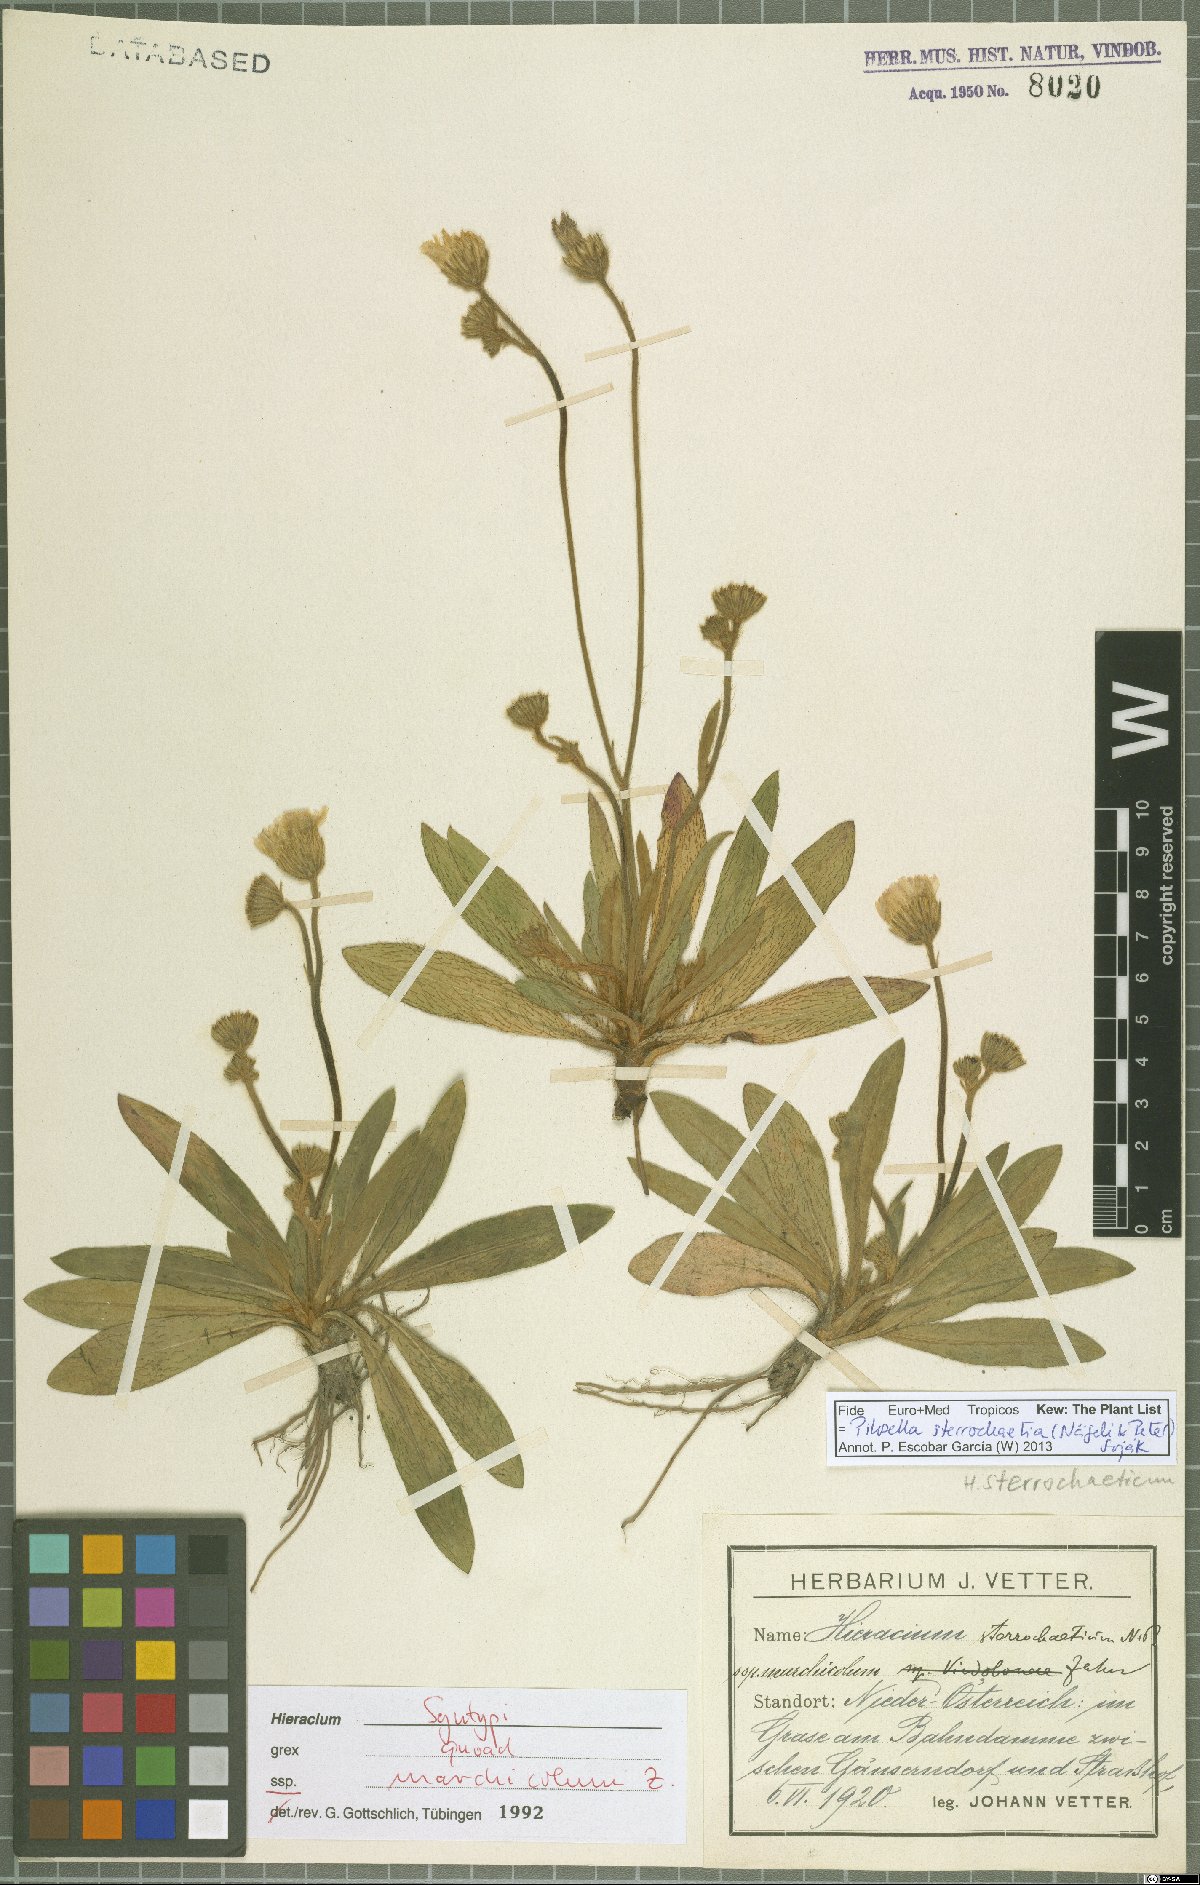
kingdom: Plantae
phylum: Tracheophyta
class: Magnoliopsida
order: Asterales
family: Asteraceae
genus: Pilosella
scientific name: Pilosella sterrochaetia
